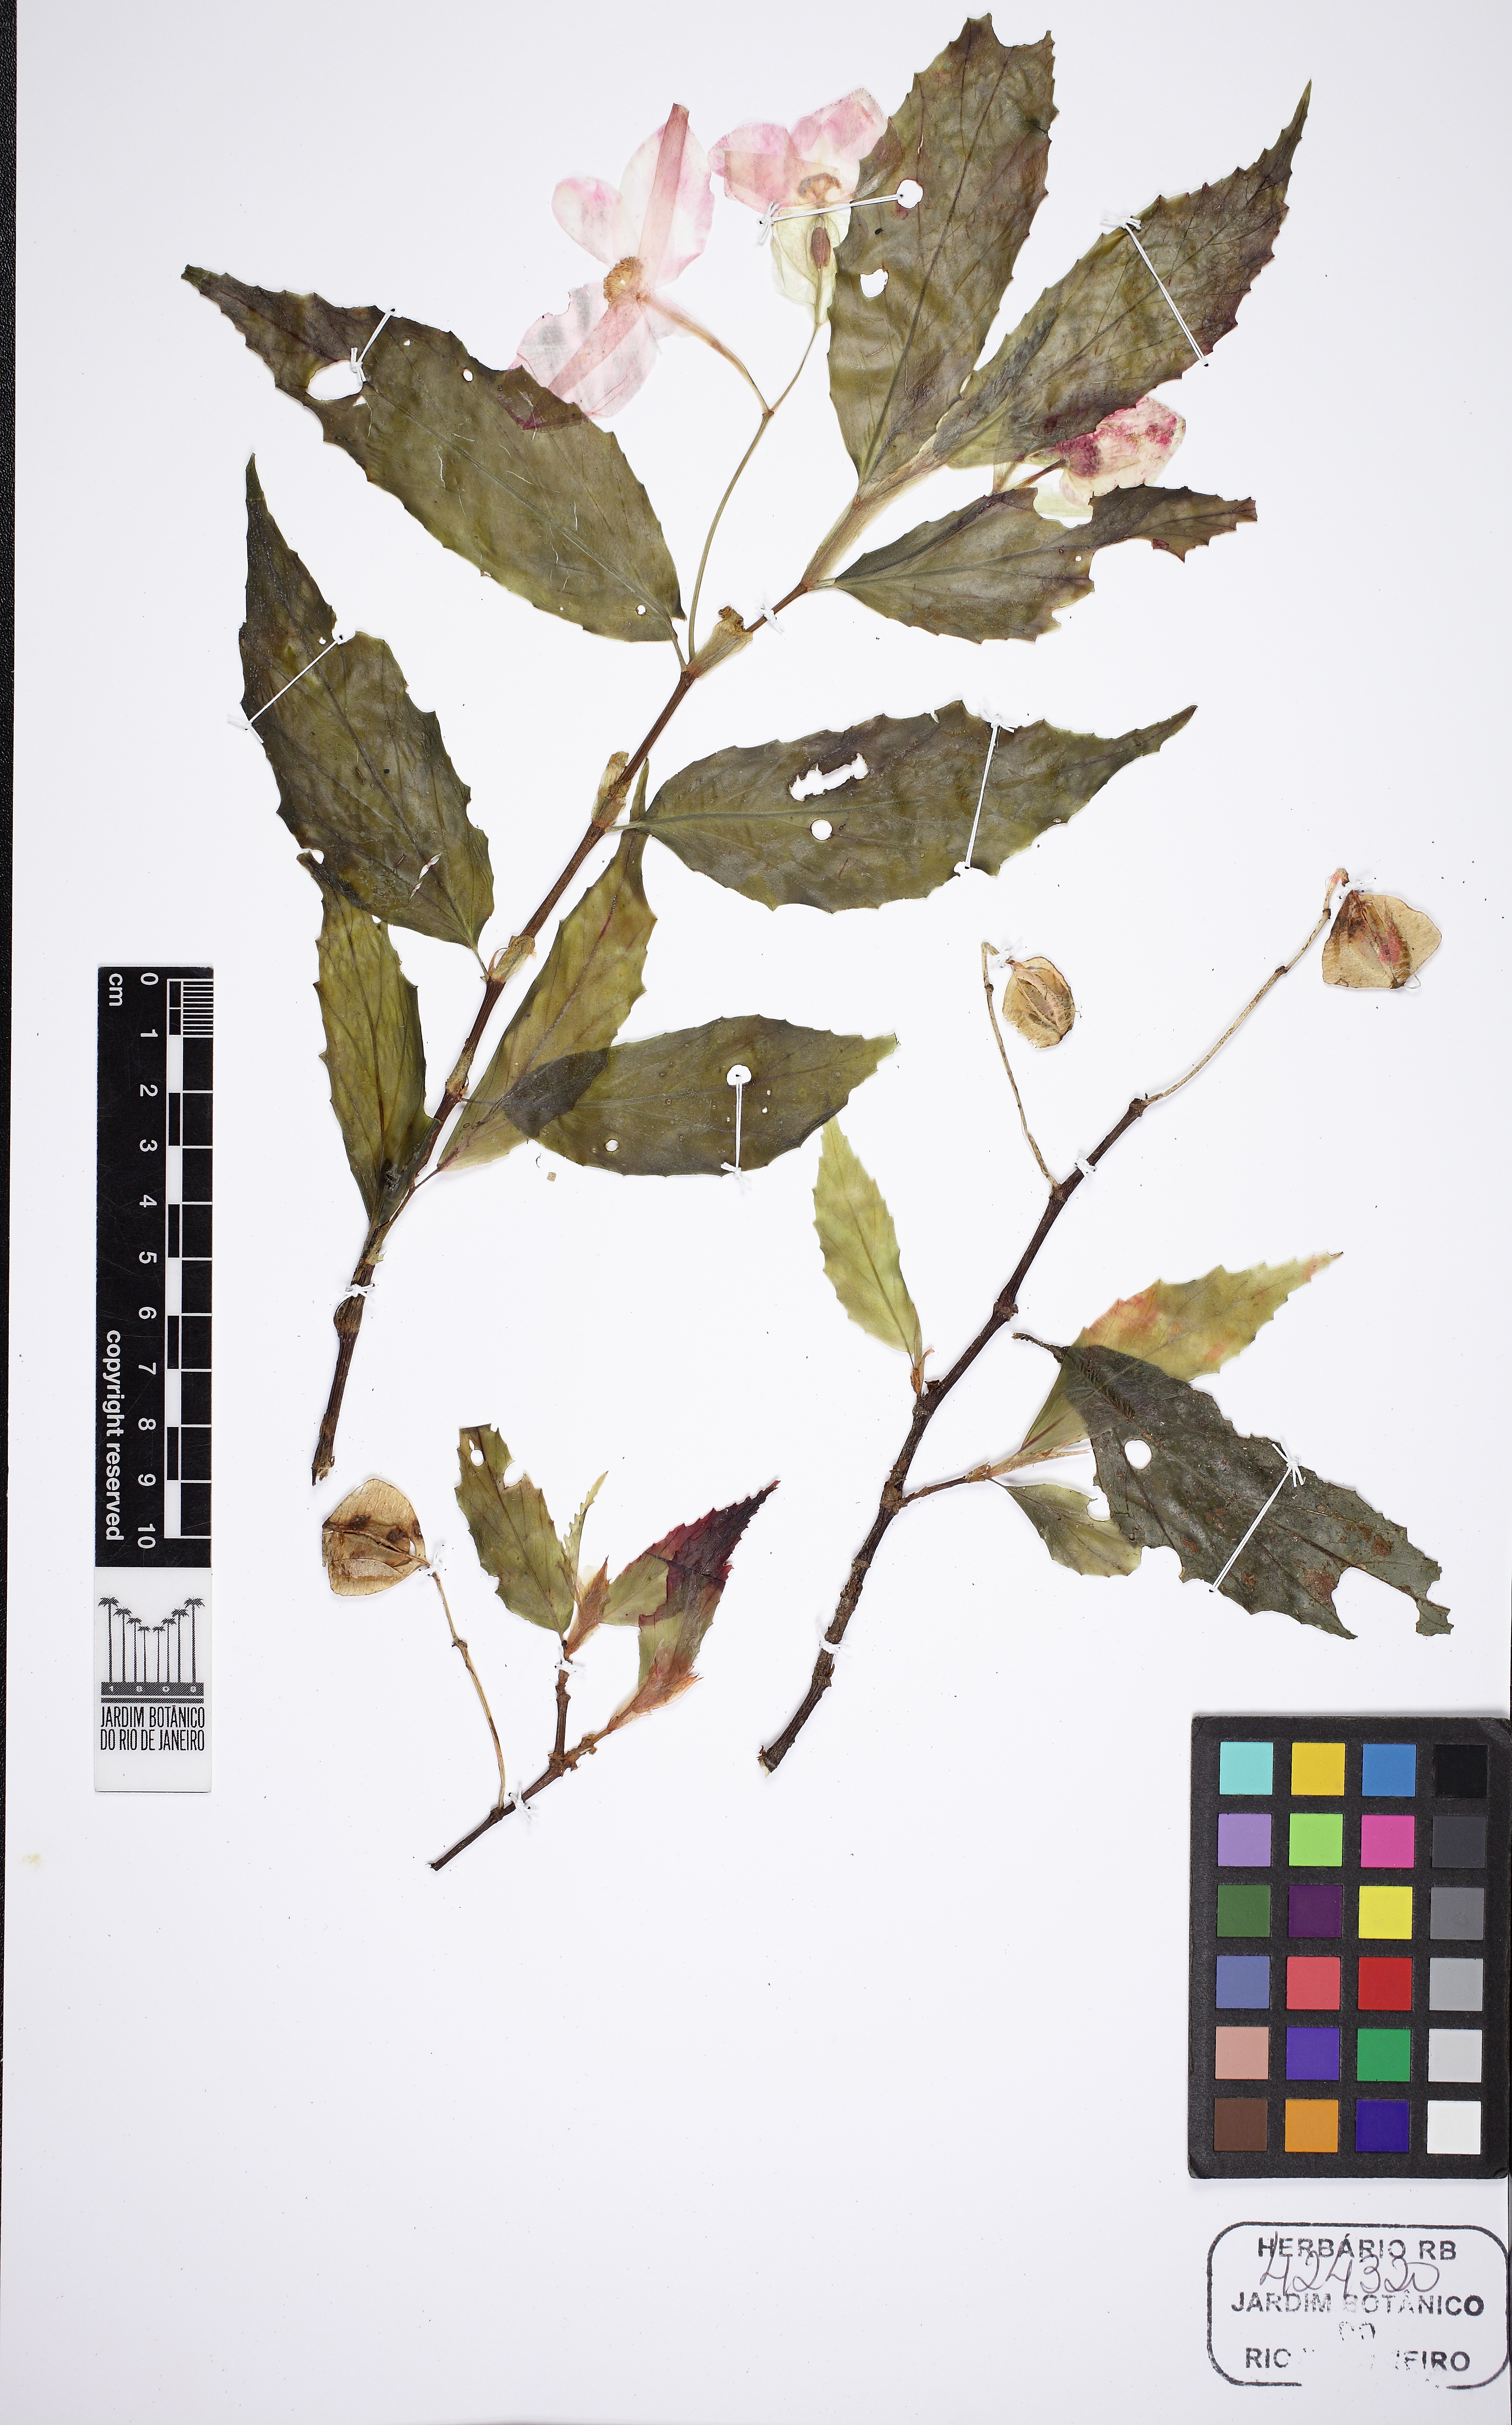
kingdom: Plantae
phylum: Tracheophyta
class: Magnoliopsida
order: Cucurbitales
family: Begoniaceae
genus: Begonia
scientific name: Begonia kunthiana
